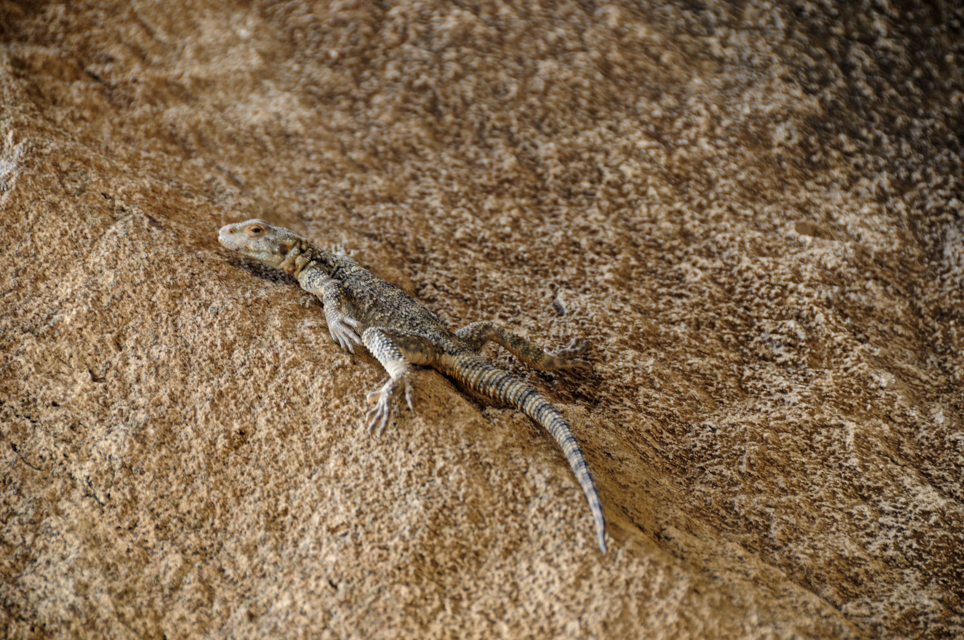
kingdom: Animalia
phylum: Chordata
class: Squamata
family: Agamidae
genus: Paralaudakia
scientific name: Paralaudakia caucasia
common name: Caucasian agama
